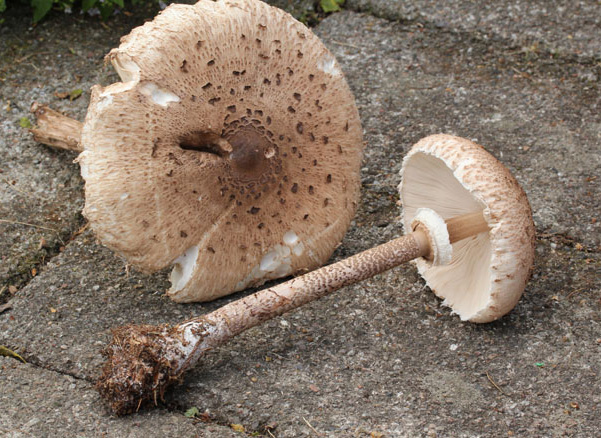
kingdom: Fungi
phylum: Basidiomycota
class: Agaricomycetes
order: Agaricales
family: Agaricaceae
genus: Macrolepiota
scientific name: Macrolepiota procera
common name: stor kæmpeparasolhat
